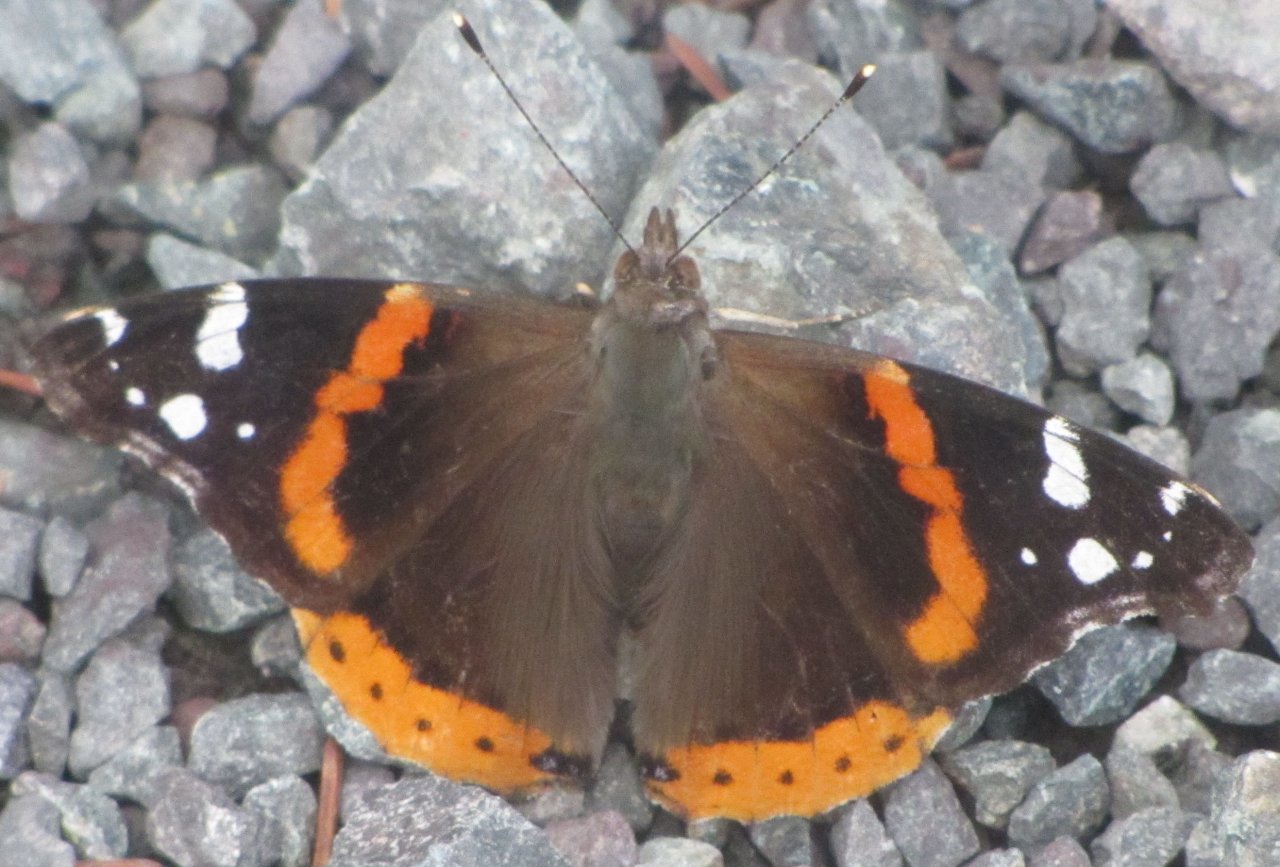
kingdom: Animalia
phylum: Arthropoda
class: Insecta
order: Lepidoptera
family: Nymphalidae
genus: Vanessa
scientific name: Vanessa atalanta
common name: Red Admiral
